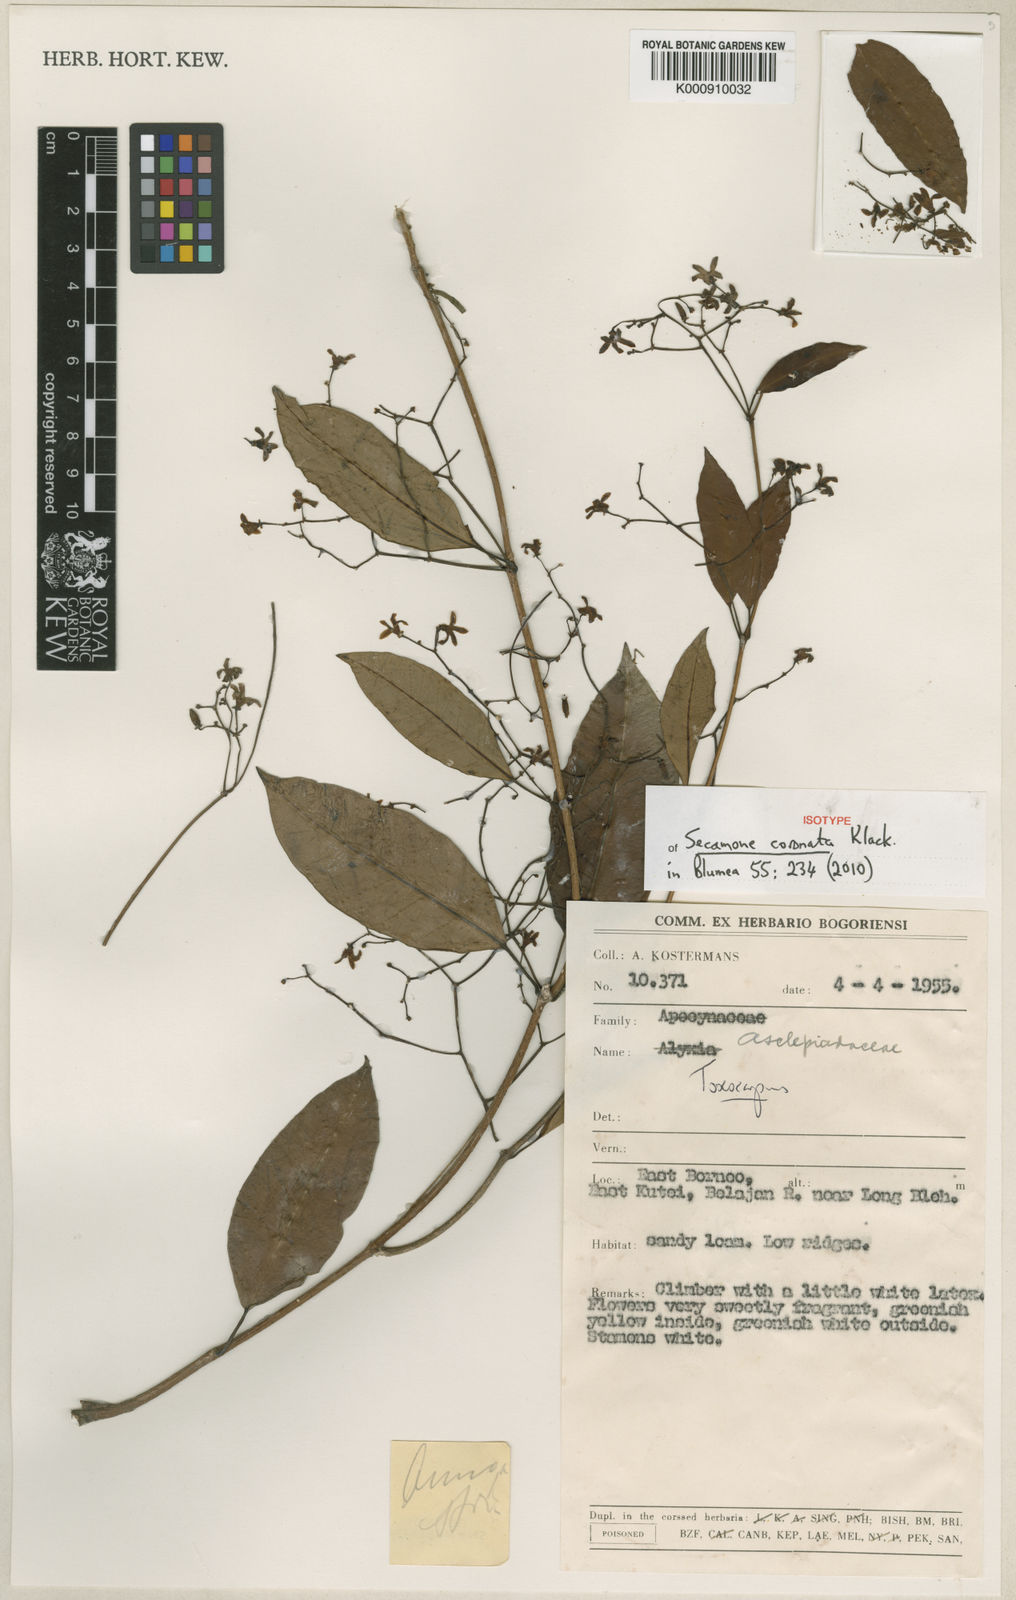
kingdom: Plantae
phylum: Tracheophyta
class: Magnoliopsida
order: Gentianales
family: Apocynaceae
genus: Secamone
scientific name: Secamone coronata
